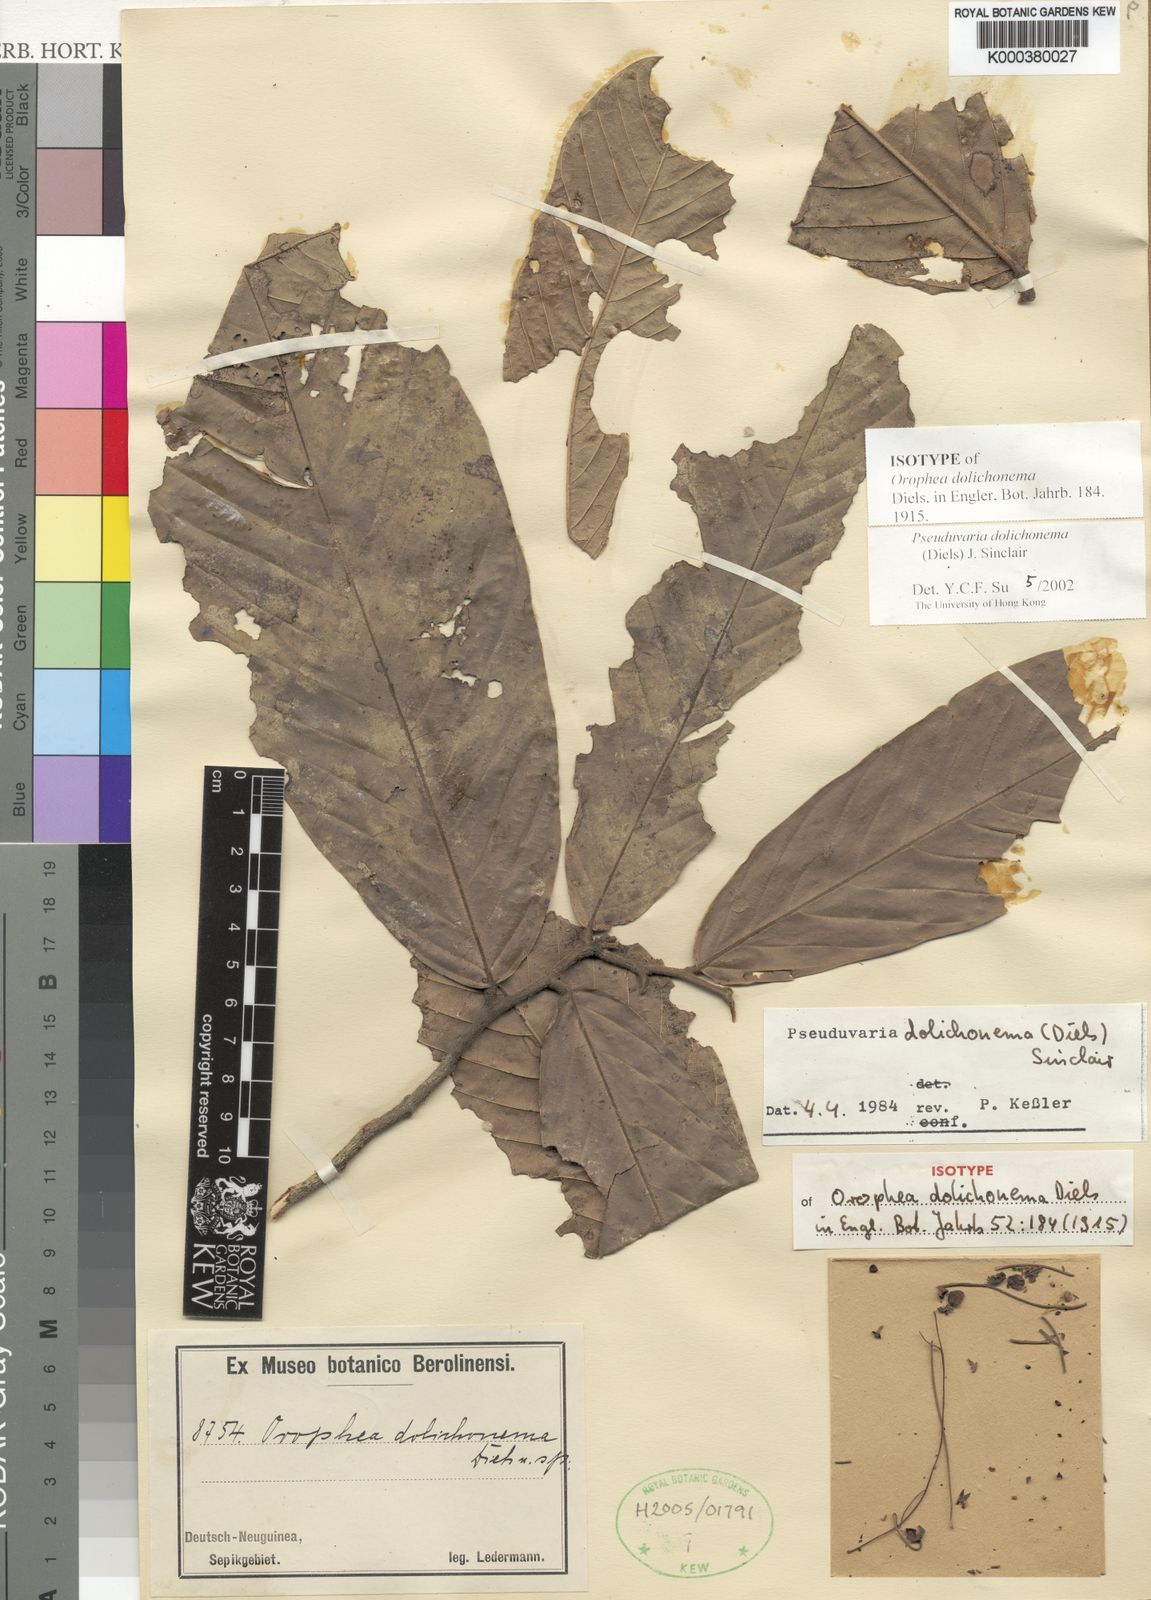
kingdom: Plantae
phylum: Tracheophyta
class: Magnoliopsida
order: Magnoliales
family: Annonaceae
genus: Pseuduvaria
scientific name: Pseuduvaria dolichonema
